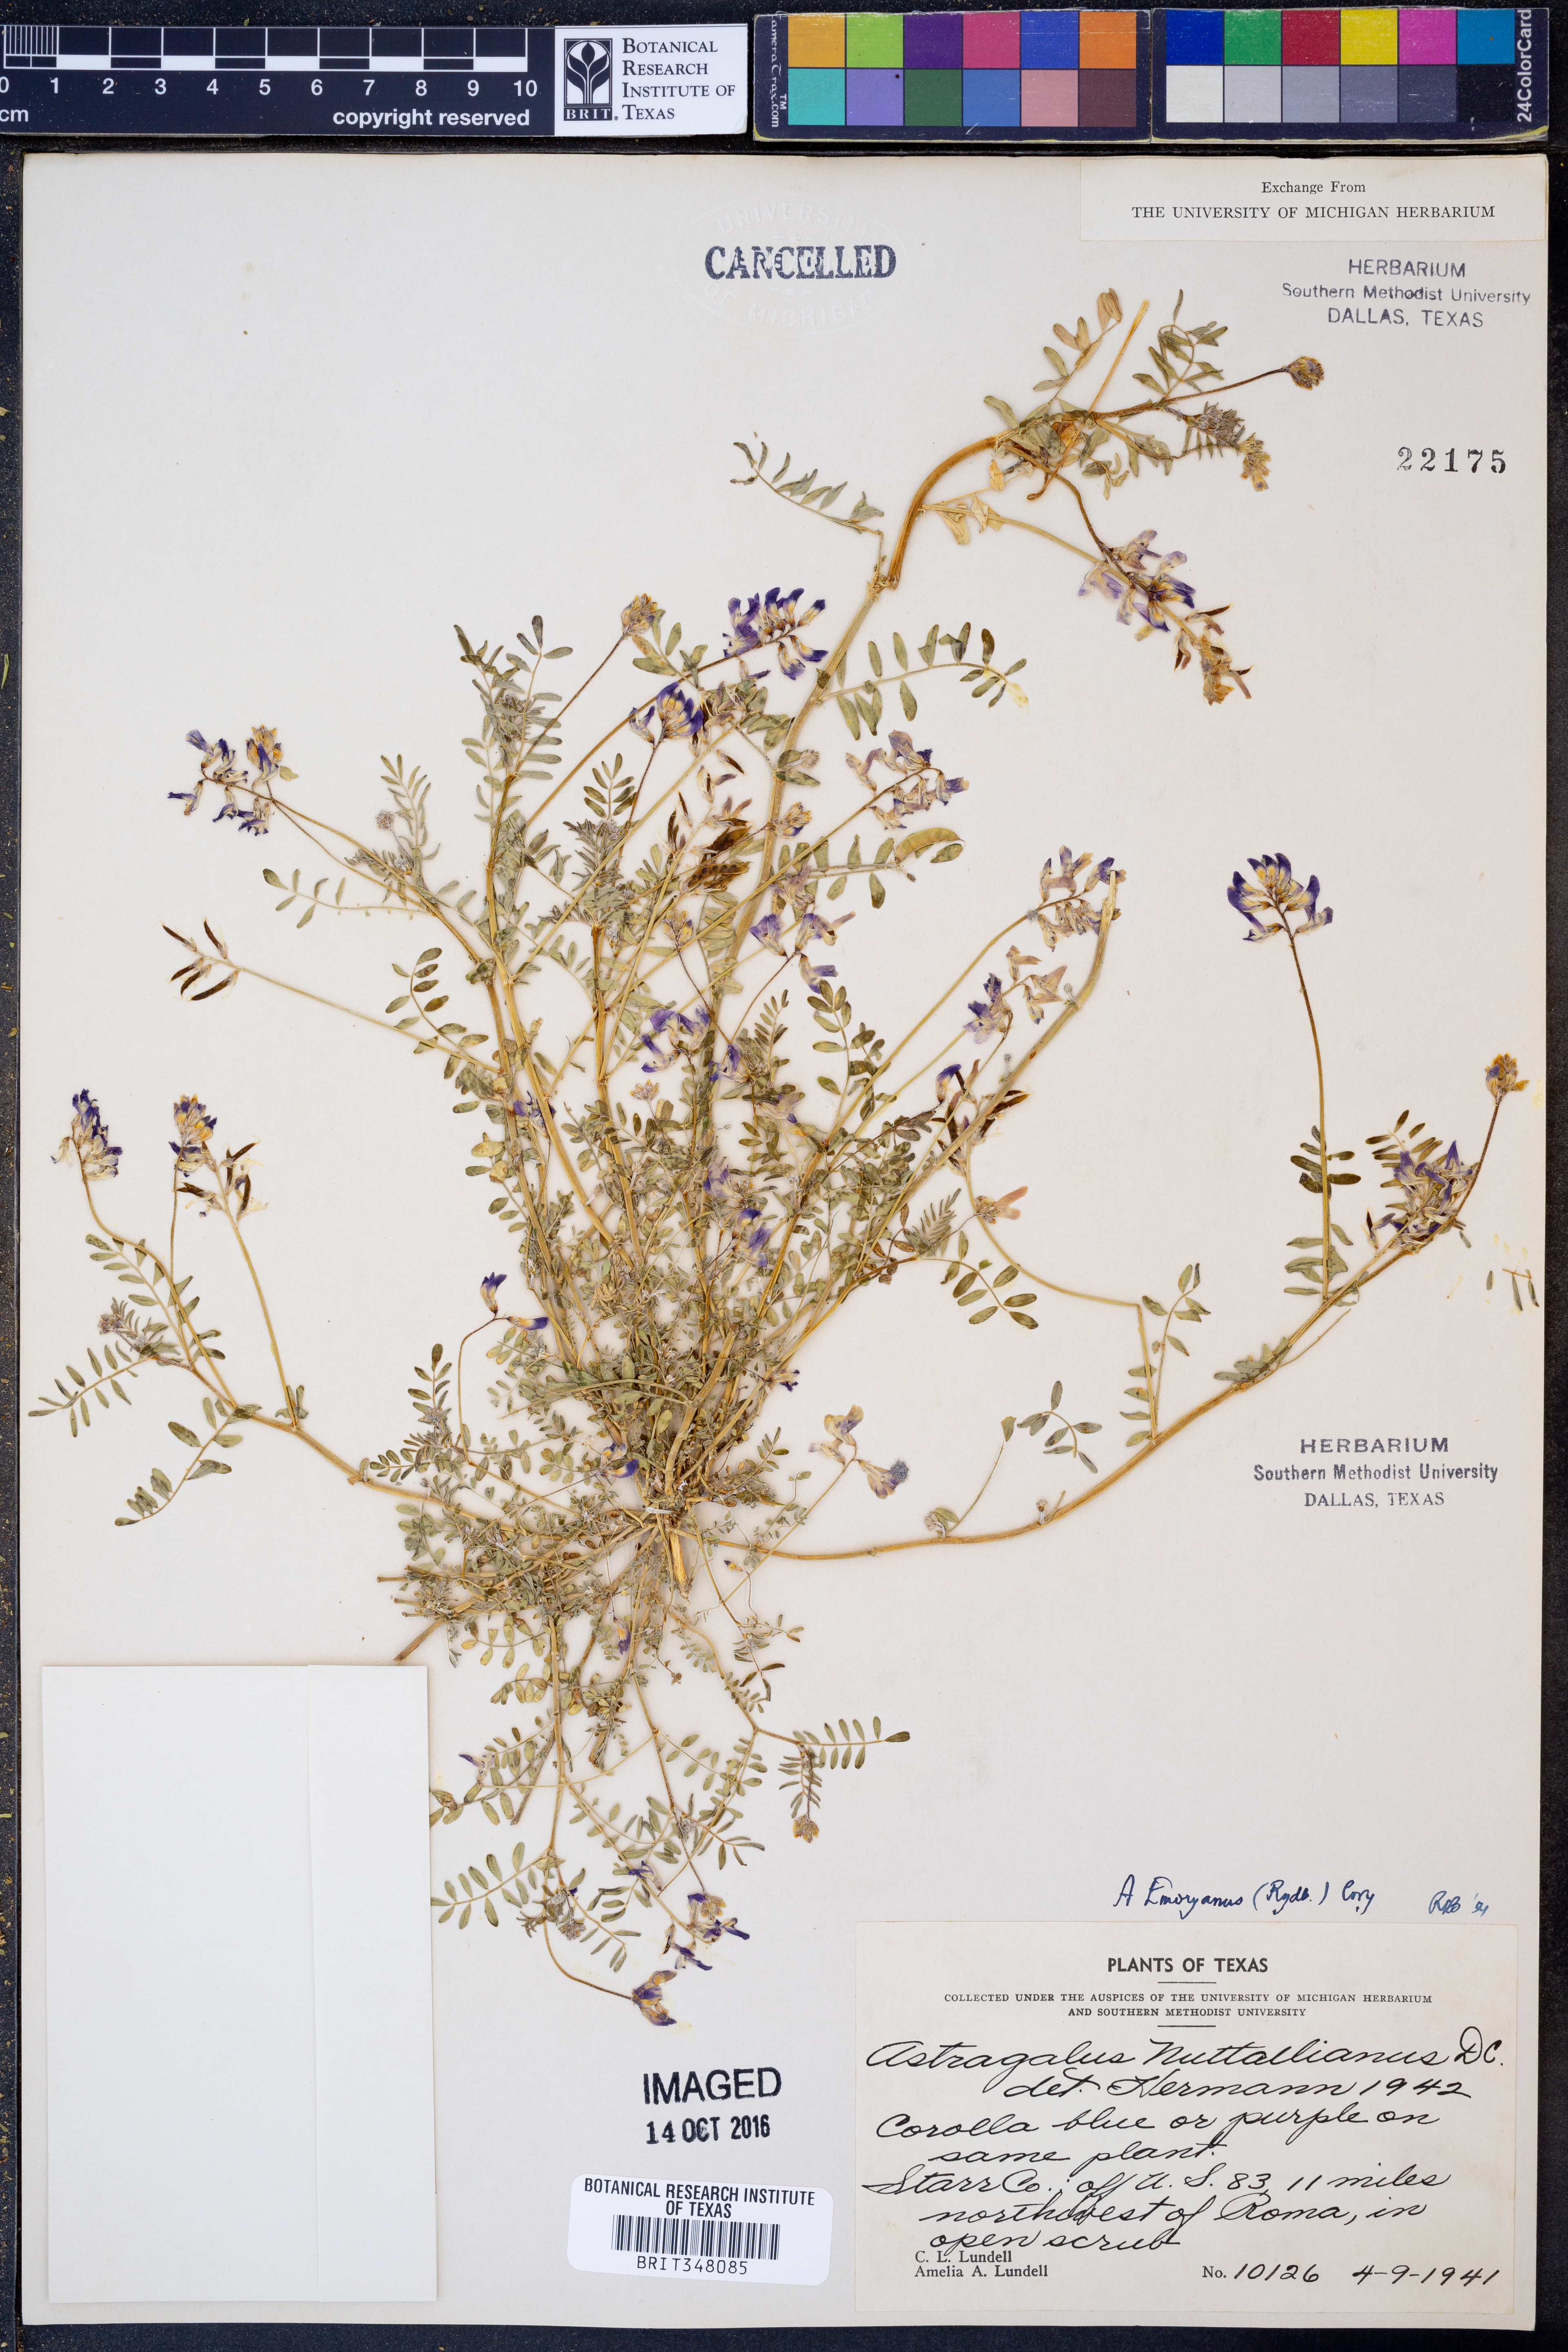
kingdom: Plantae
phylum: Tracheophyta
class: Magnoliopsida
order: Fabales
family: Fabaceae
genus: Astragalus
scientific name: Astragalus emoryanus
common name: Emory's milk-vetch
